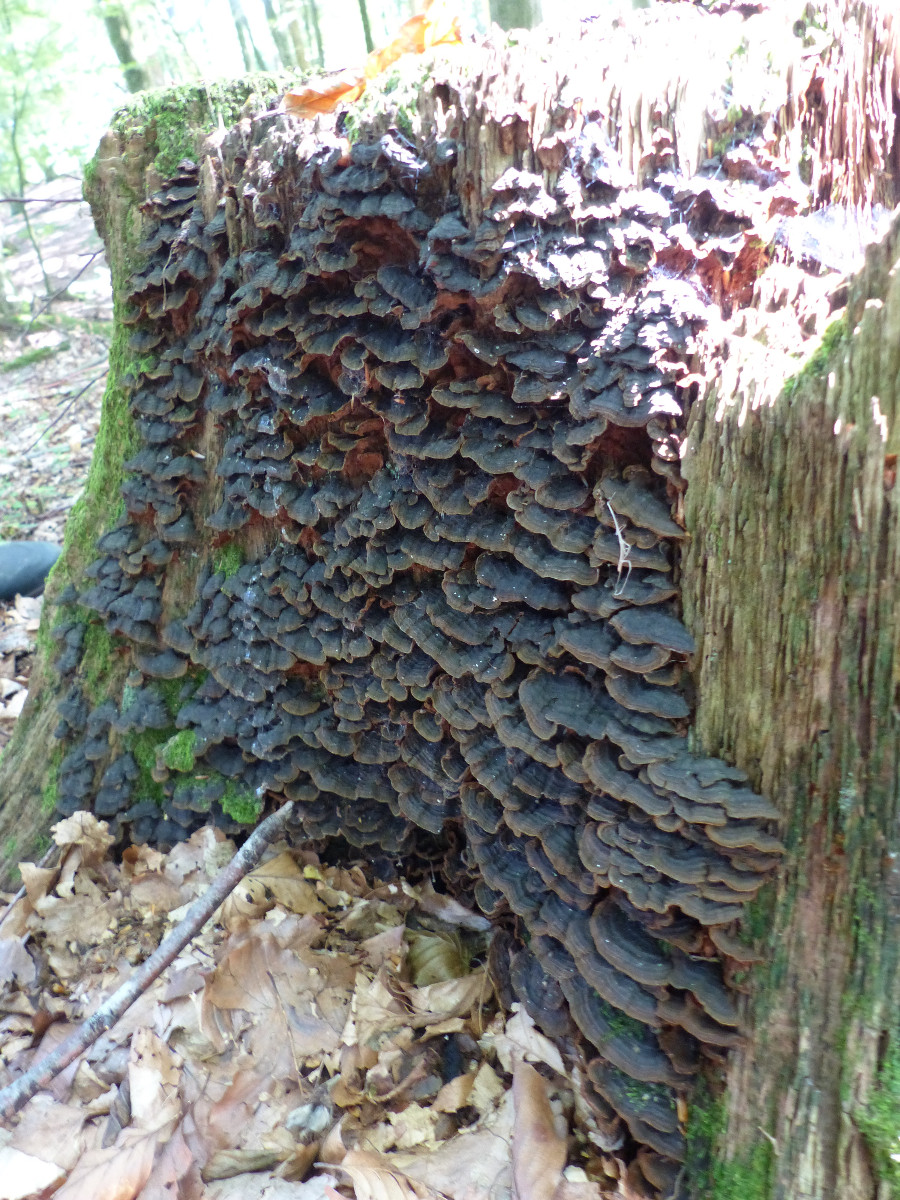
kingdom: Fungi
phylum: Basidiomycota
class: Agaricomycetes
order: Hymenochaetales
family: Hymenochaetaceae
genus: Hymenochaete
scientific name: Hymenochaete rubiginosa
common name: stiv ruslædersvamp
